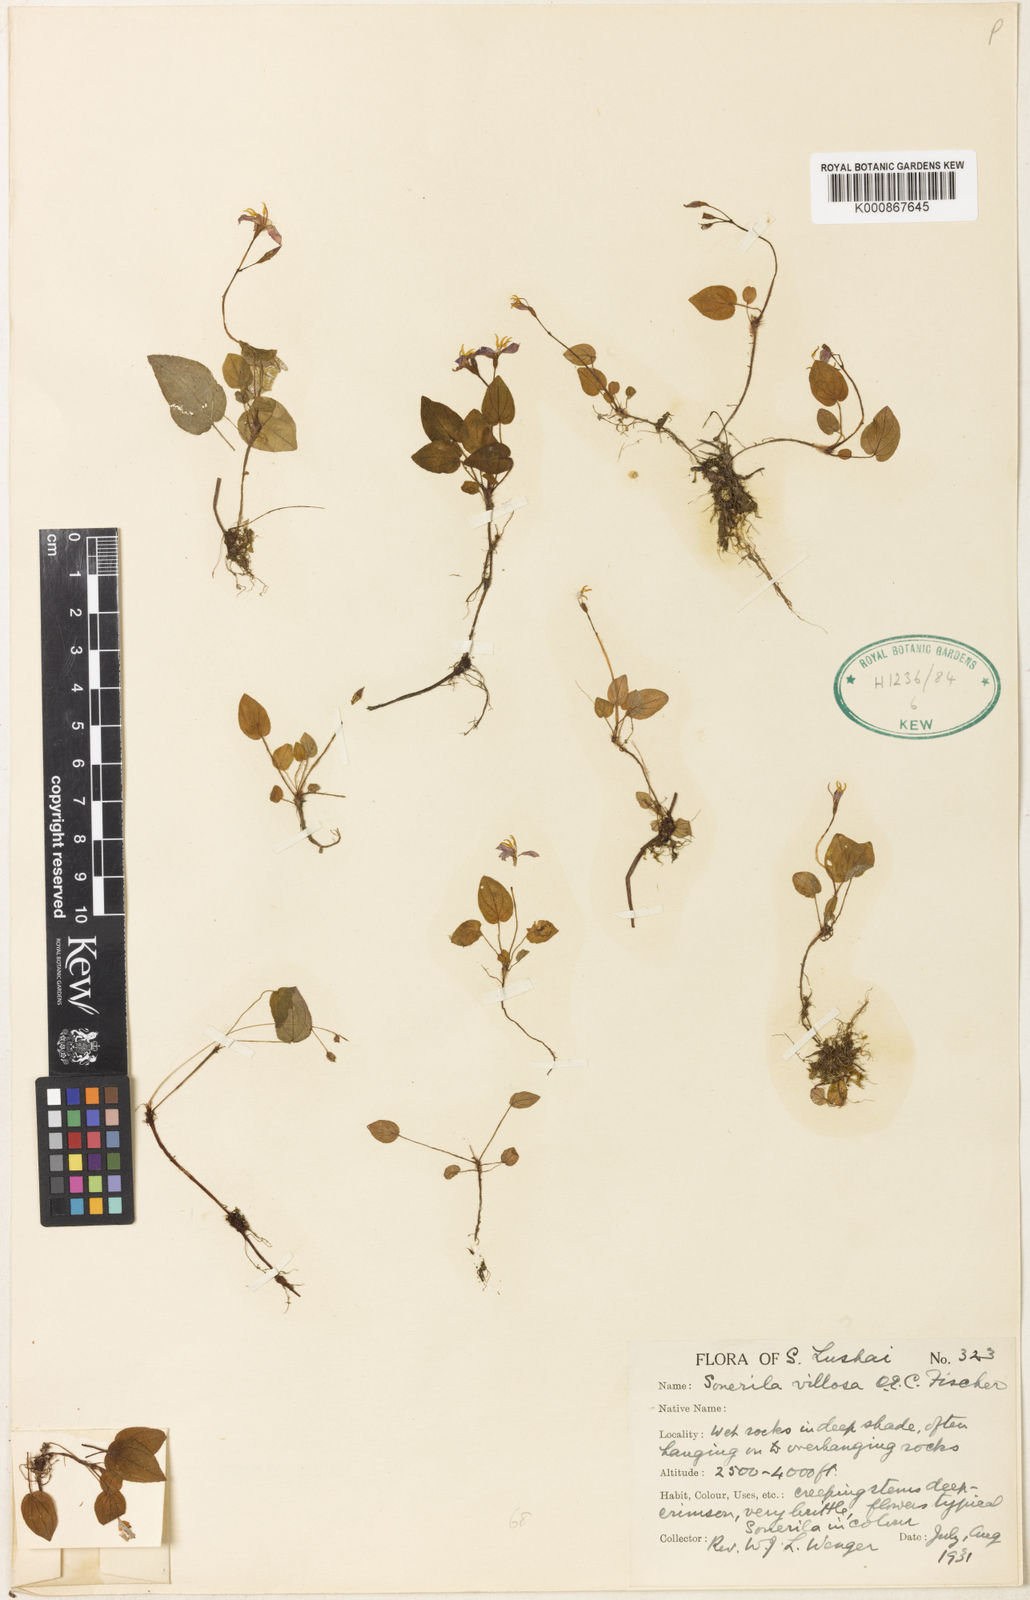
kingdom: Plantae
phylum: Tracheophyta
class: Magnoliopsida
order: Myrtales
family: Melastomataceae
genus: Sonerila
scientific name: Sonerila villosa
